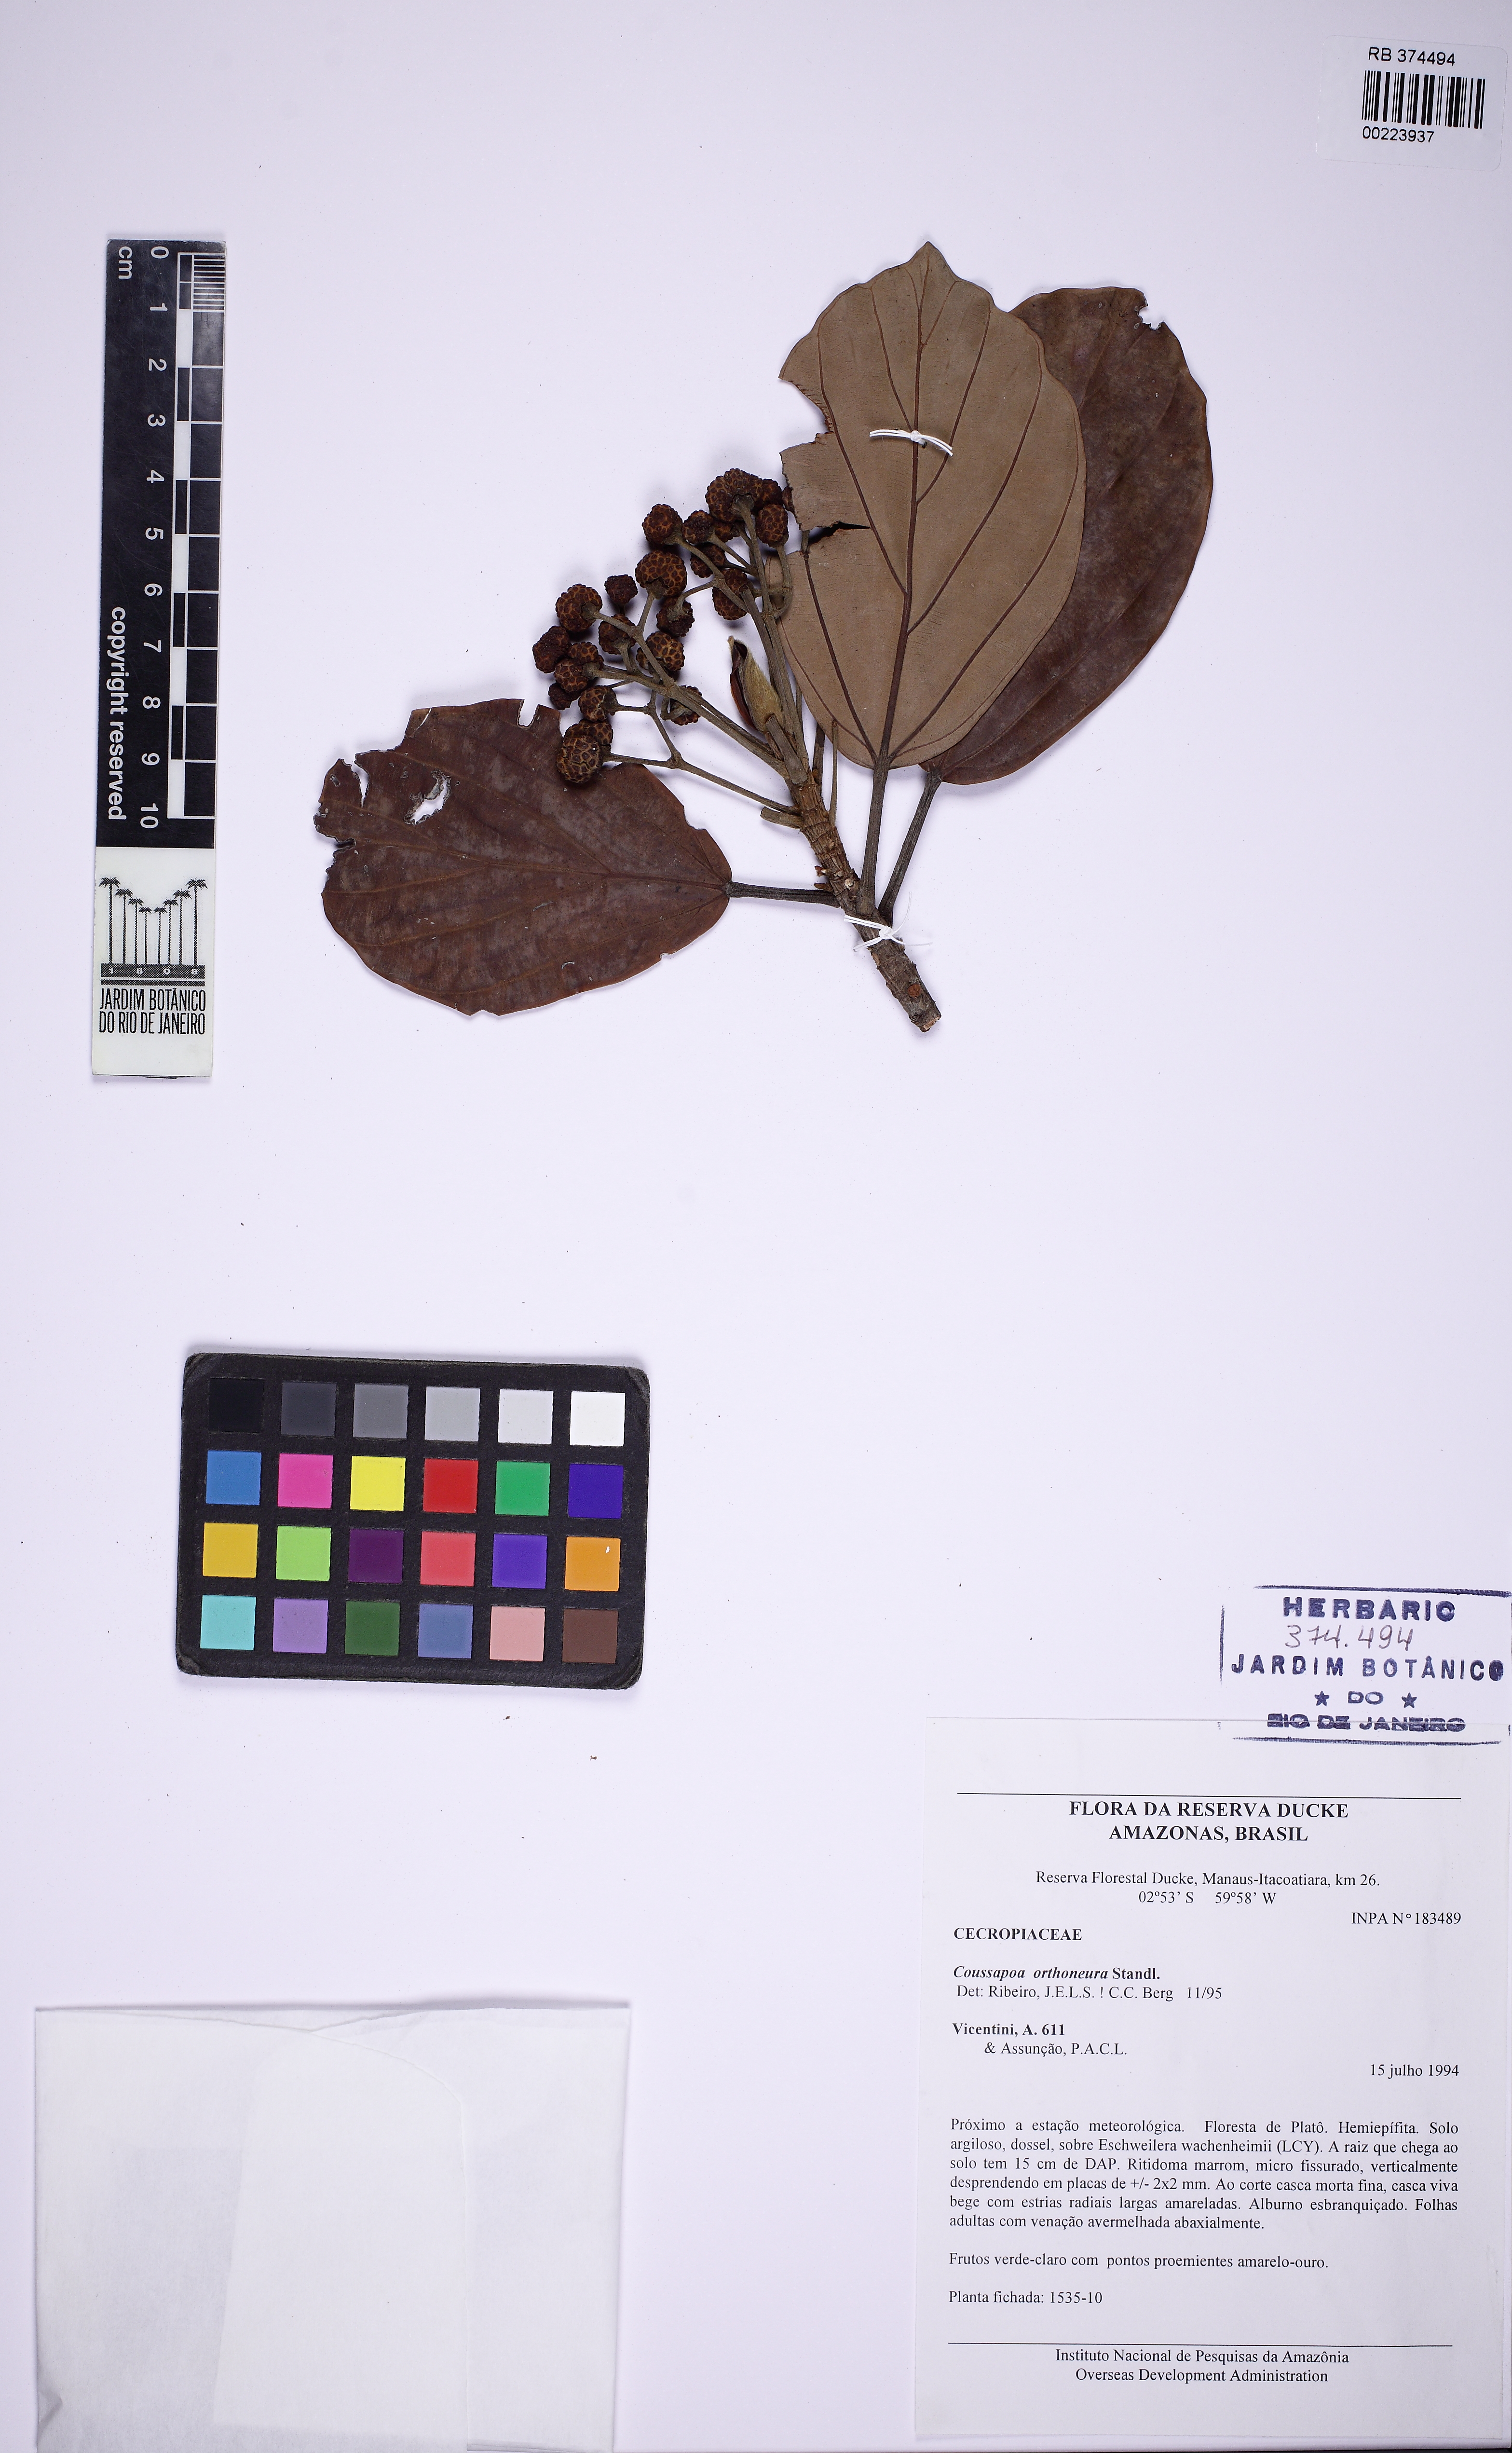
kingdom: Plantae
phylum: Tracheophyta
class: Magnoliopsida
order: Rosales
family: Urticaceae
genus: Coussapoa
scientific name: Coussapoa orthoneura
